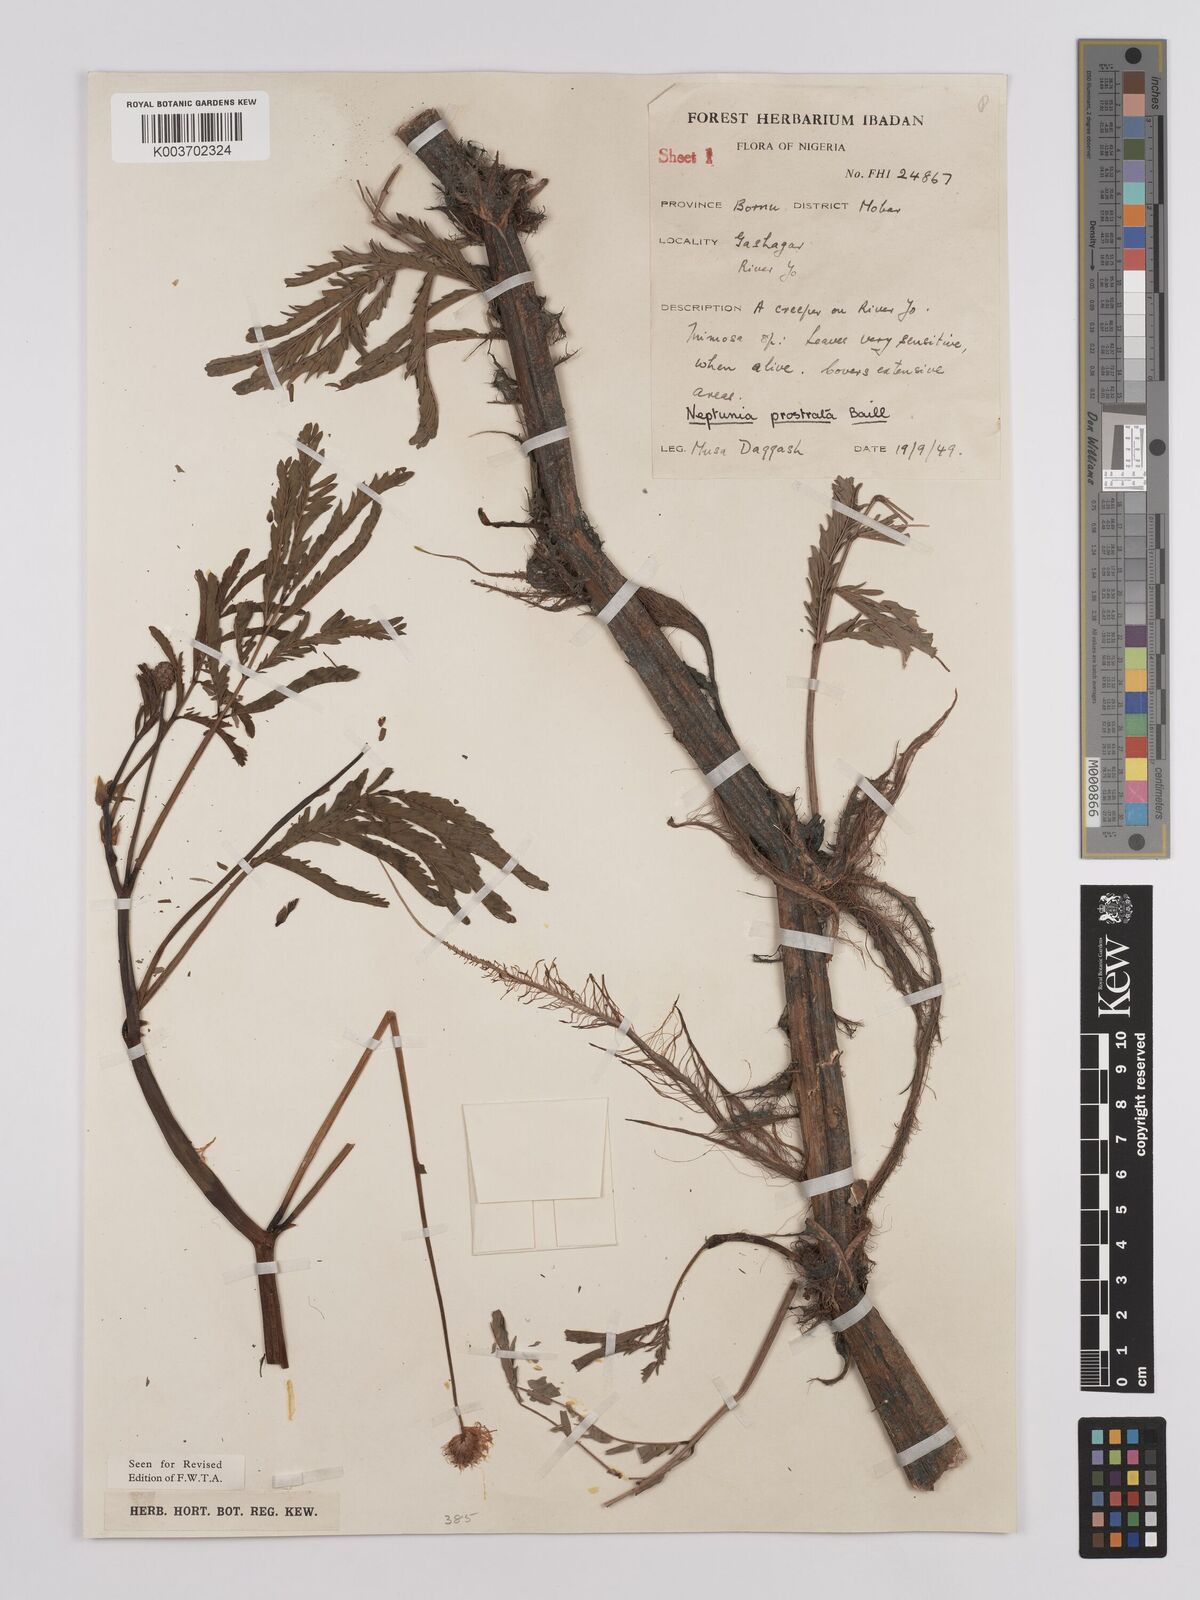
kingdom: Plantae
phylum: Tracheophyta
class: Magnoliopsida
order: Fabales
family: Fabaceae
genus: Neptunia
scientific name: Neptunia prostrata
